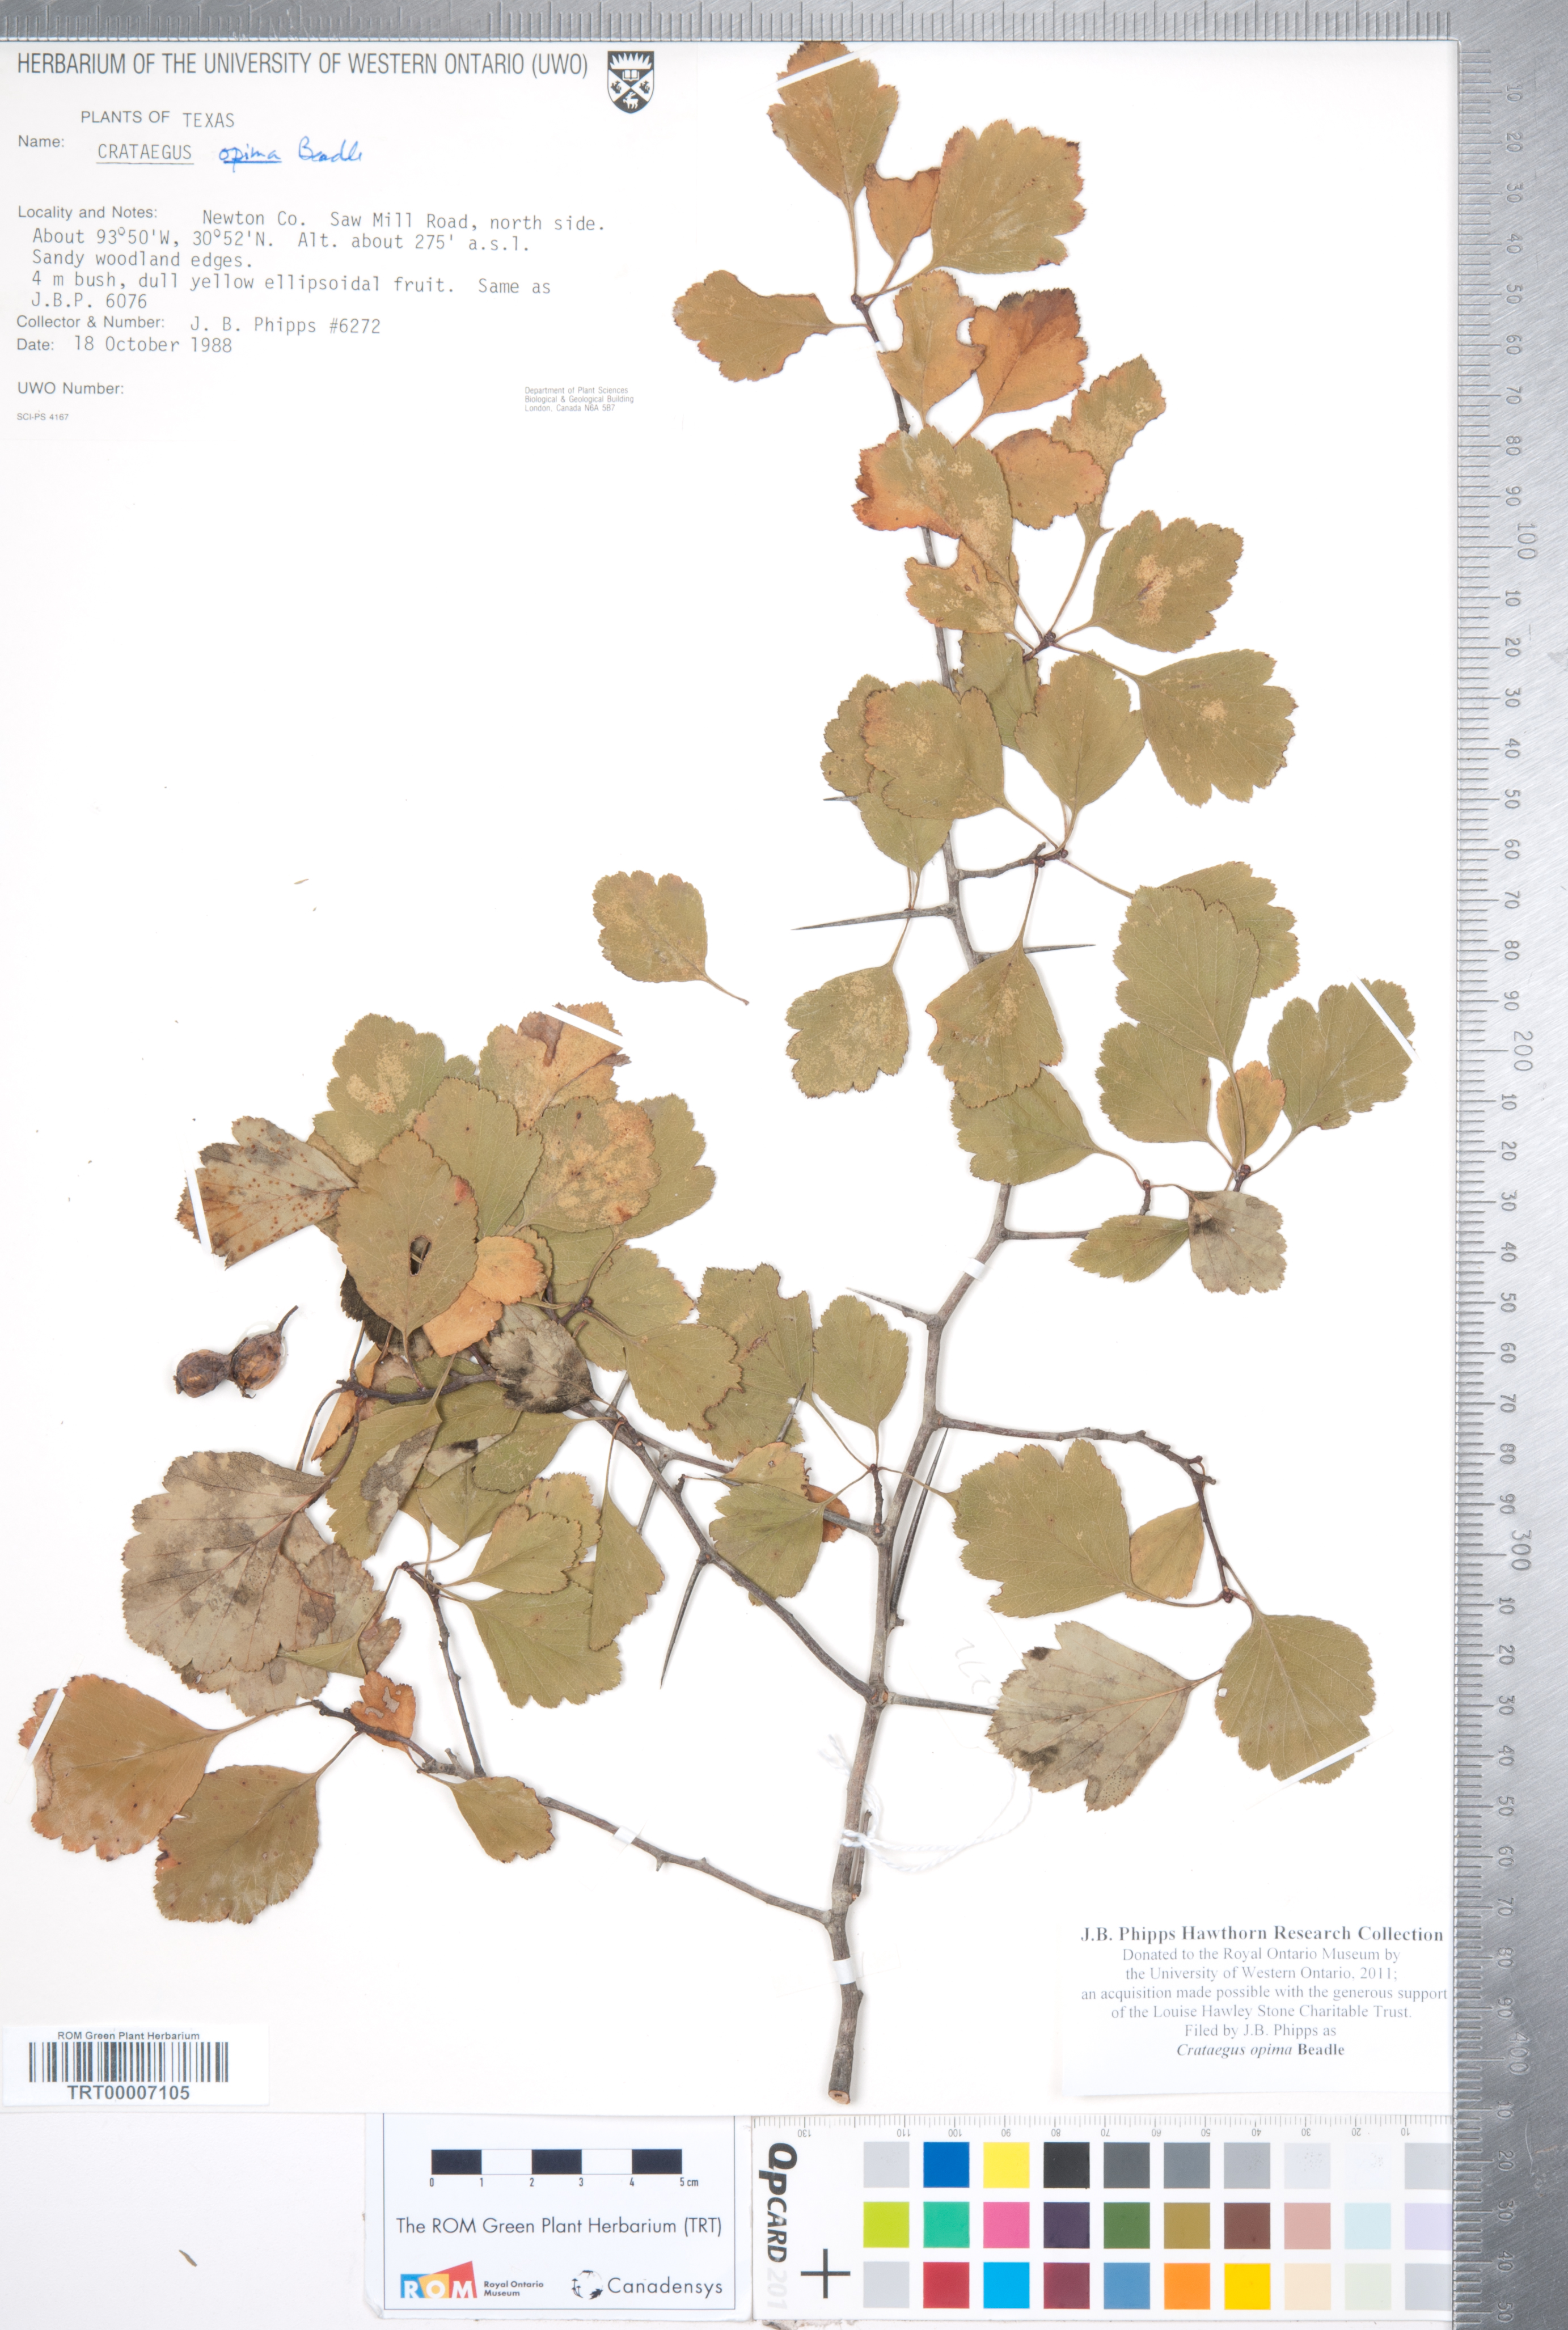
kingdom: Plantae
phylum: Tracheophyta
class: Magnoliopsida
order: Rosales
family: Rosaceae
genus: Crataegus
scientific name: Crataegus pulcherrima
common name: Beautiful hawthorn
